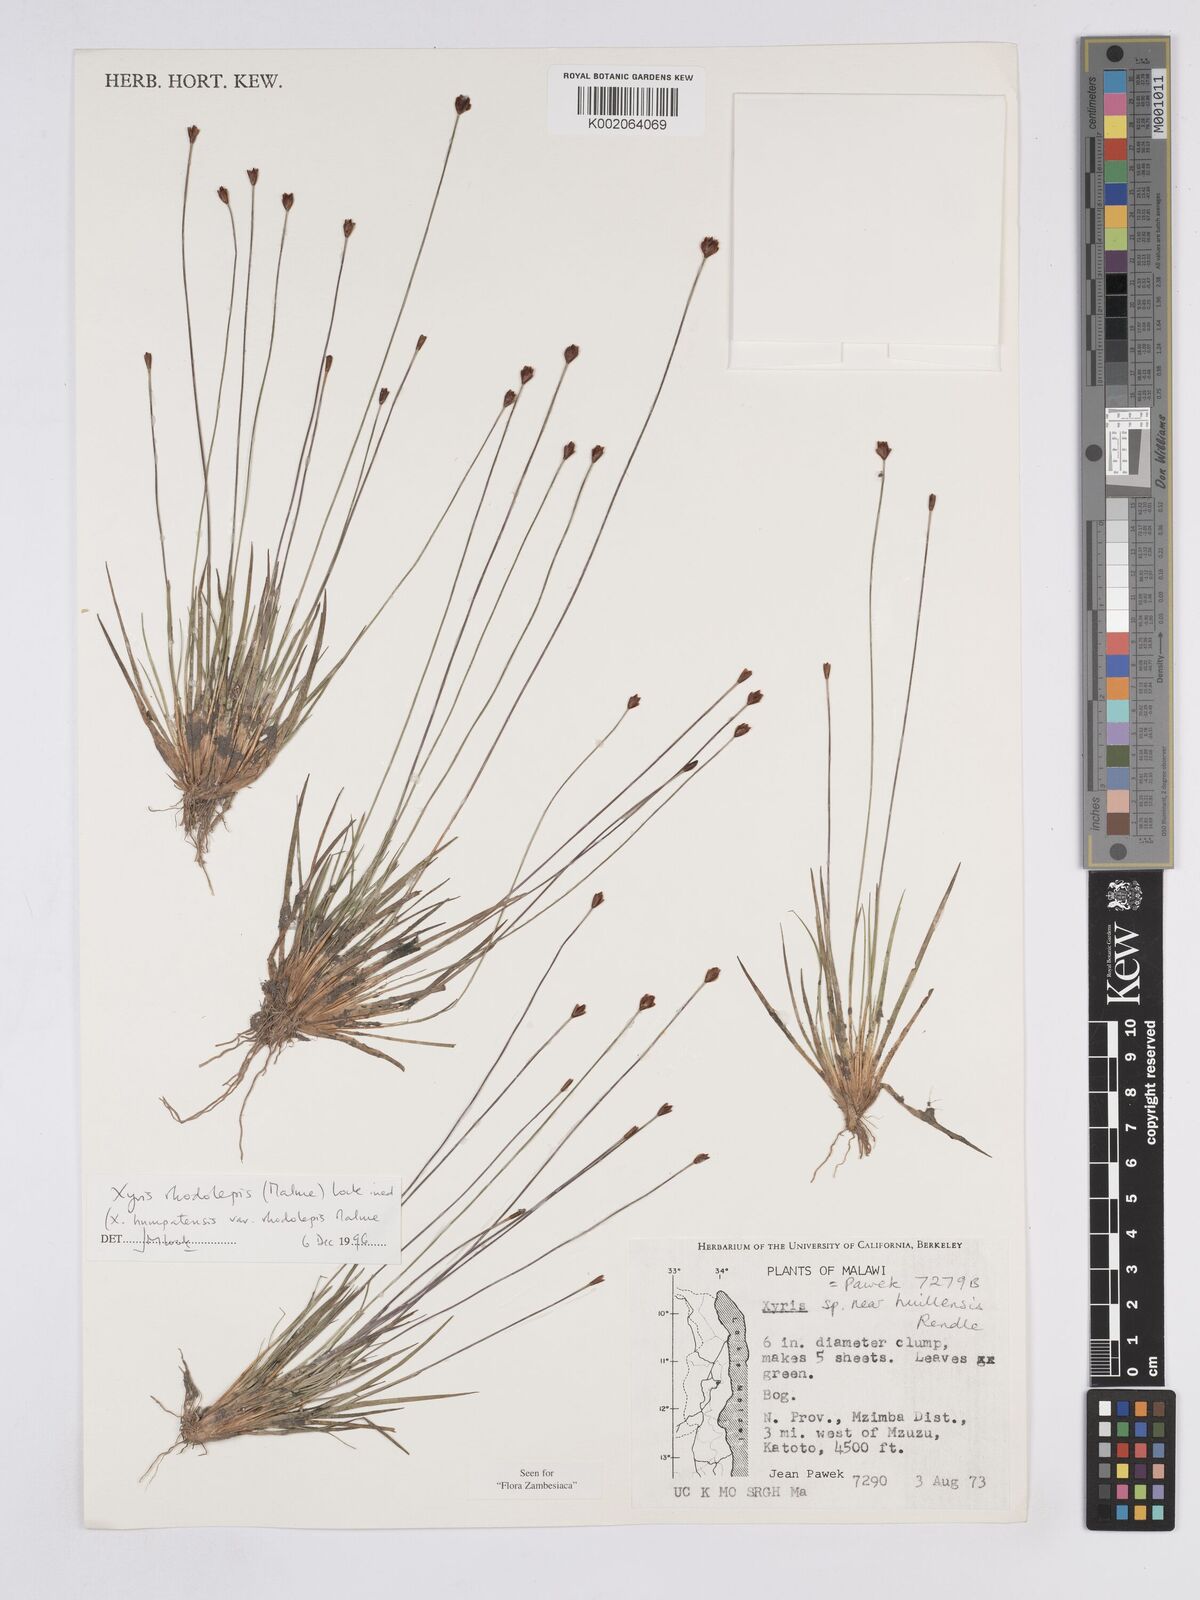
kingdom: Plantae
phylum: Tracheophyta
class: Liliopsida
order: Poales
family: Xyridaceae
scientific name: Xyridaceae
